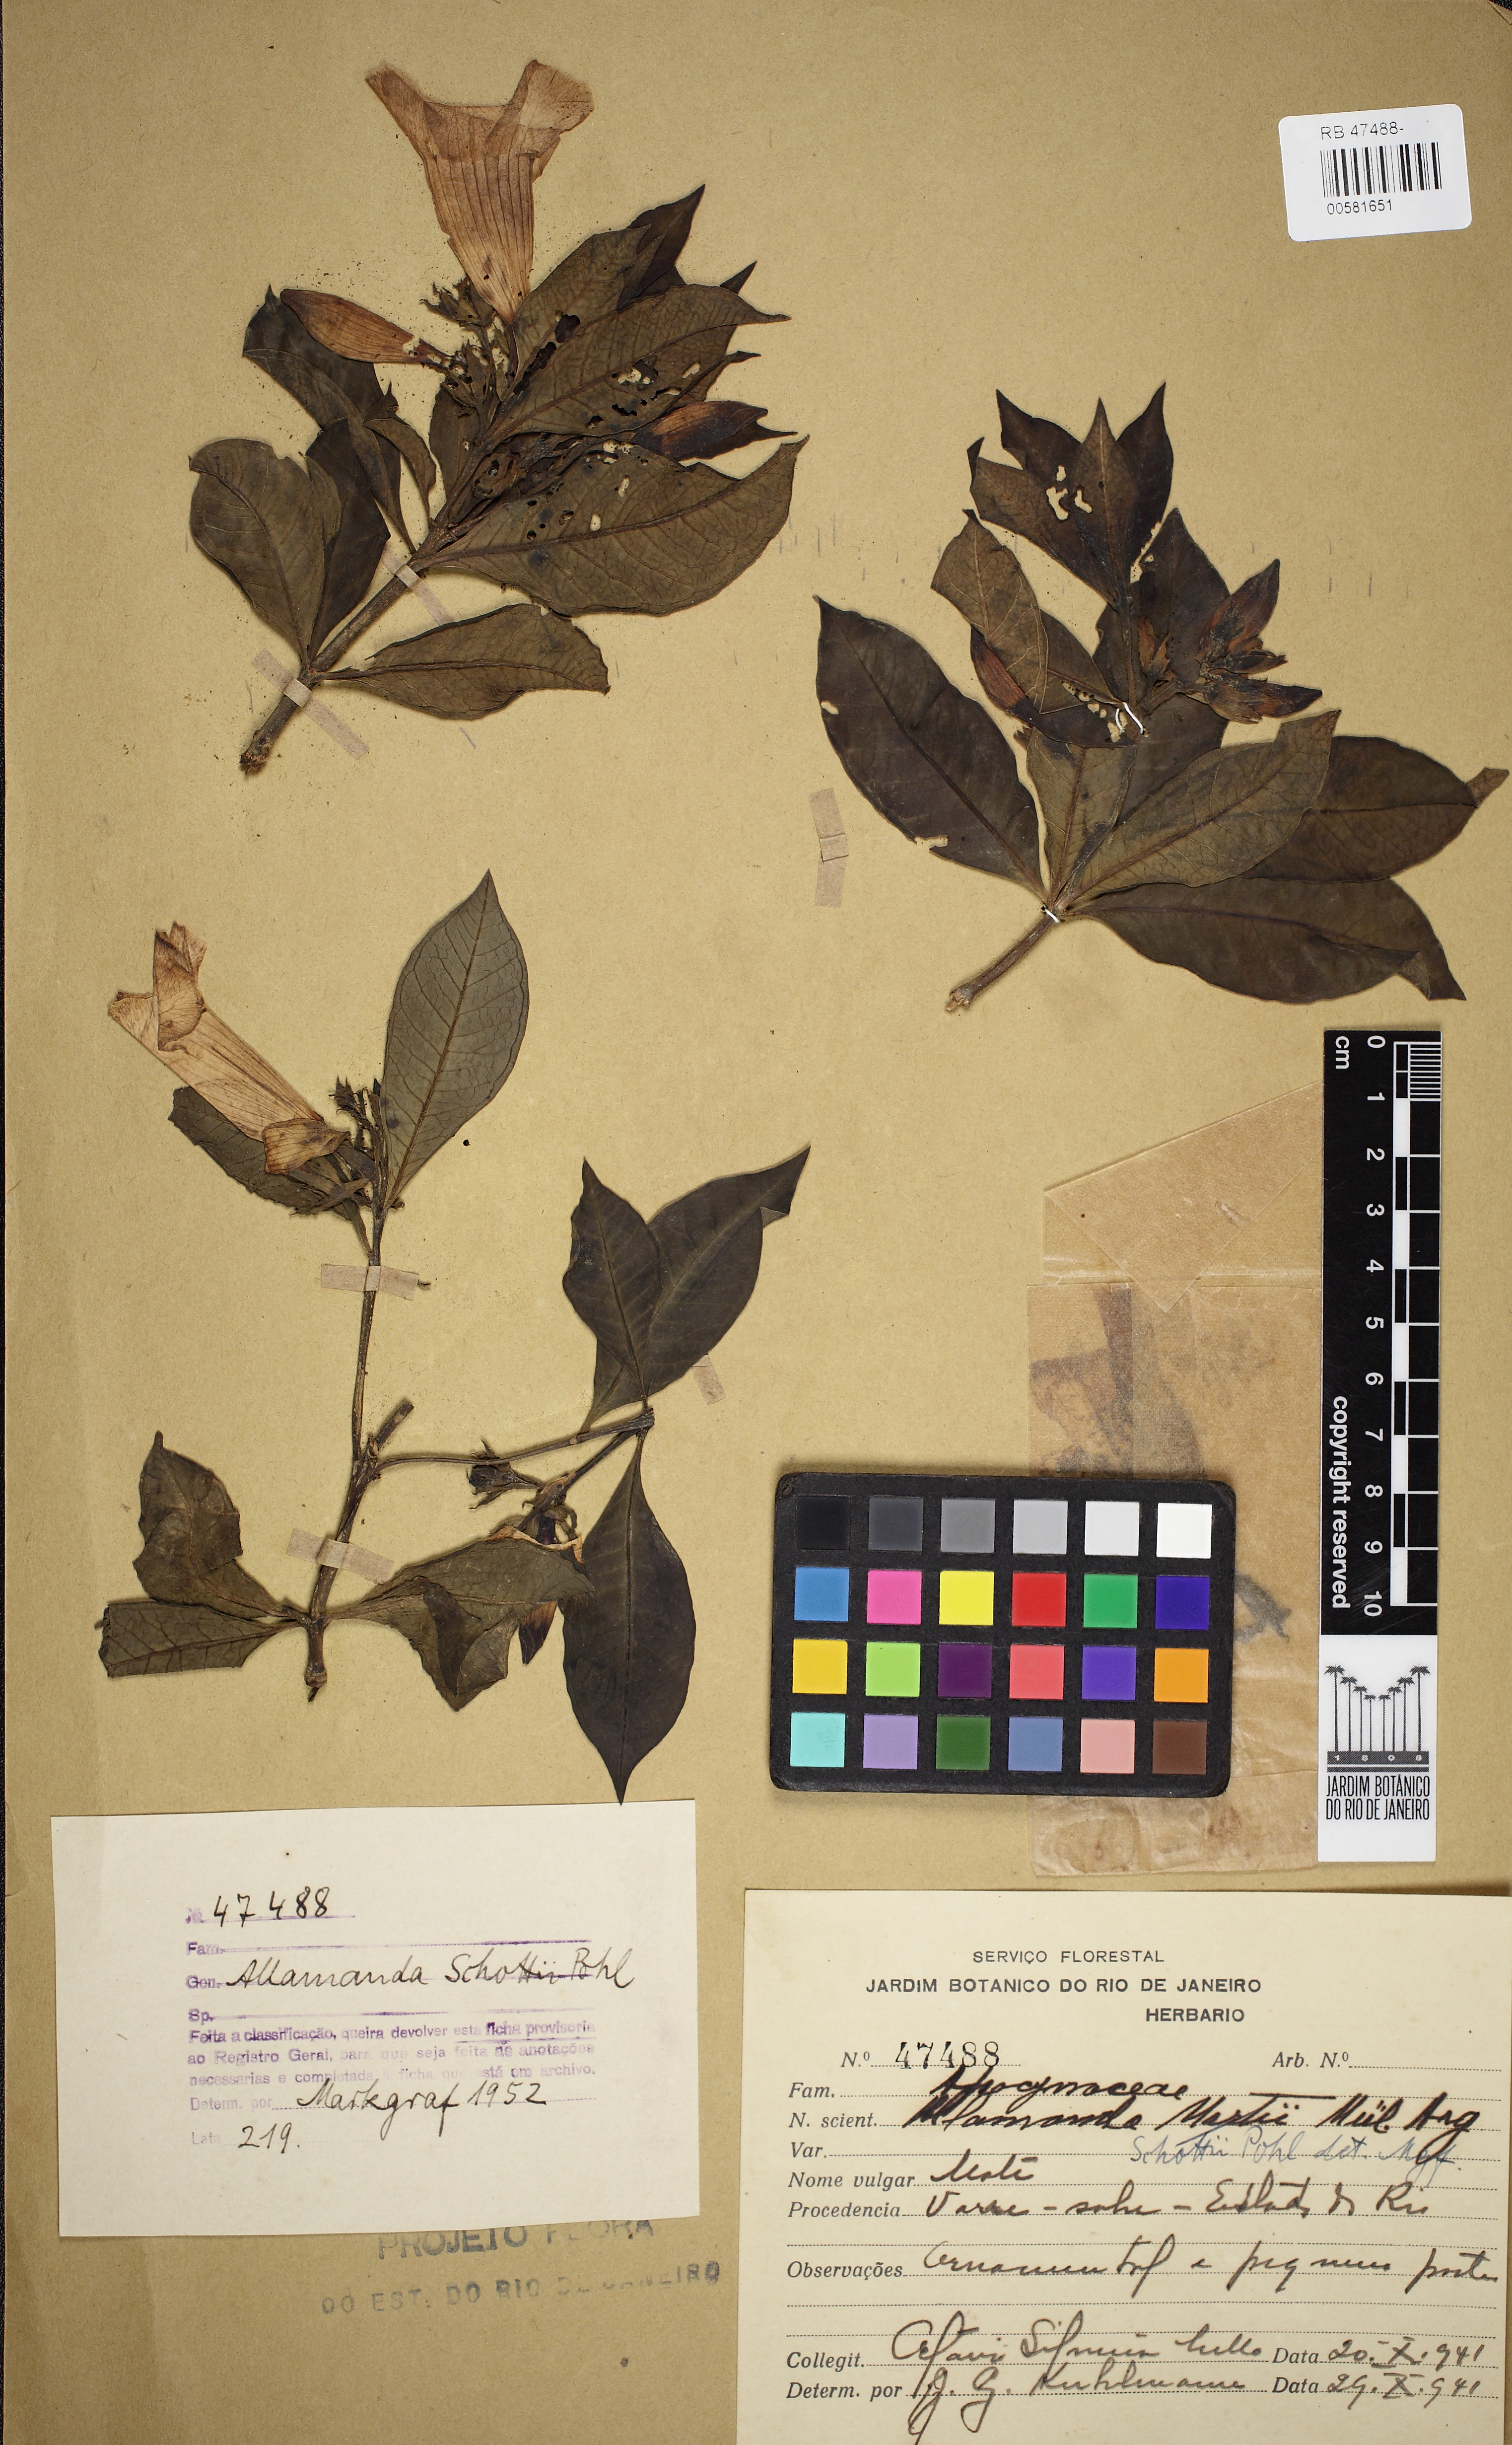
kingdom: Plantae
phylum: Tracheophyta
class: Magnoliopsida
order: Gentianales
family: Apocynaceae
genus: Allamanda
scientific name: Allamanda schottii
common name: Bush allamanda
